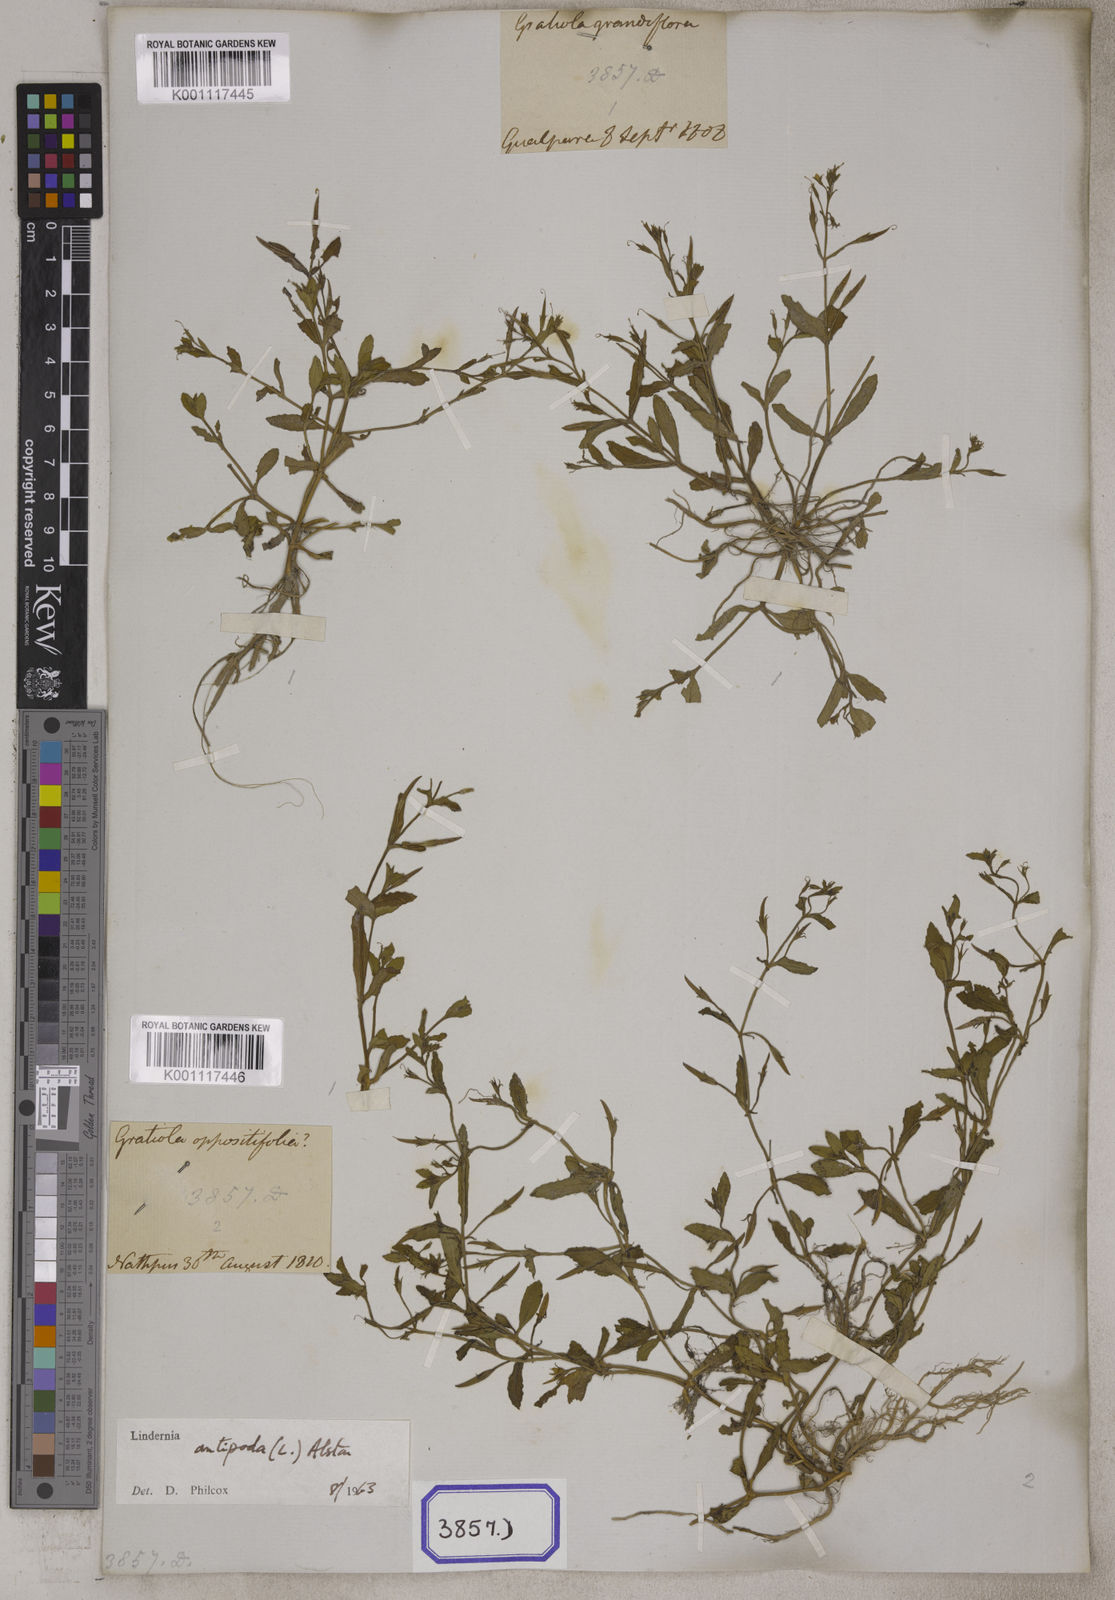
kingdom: Plantae
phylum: Tracheophyta
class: Magnoliopsida
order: Lamiales
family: Linderniaceae
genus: Bonnaya
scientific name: Bonnaya veronicifolia
